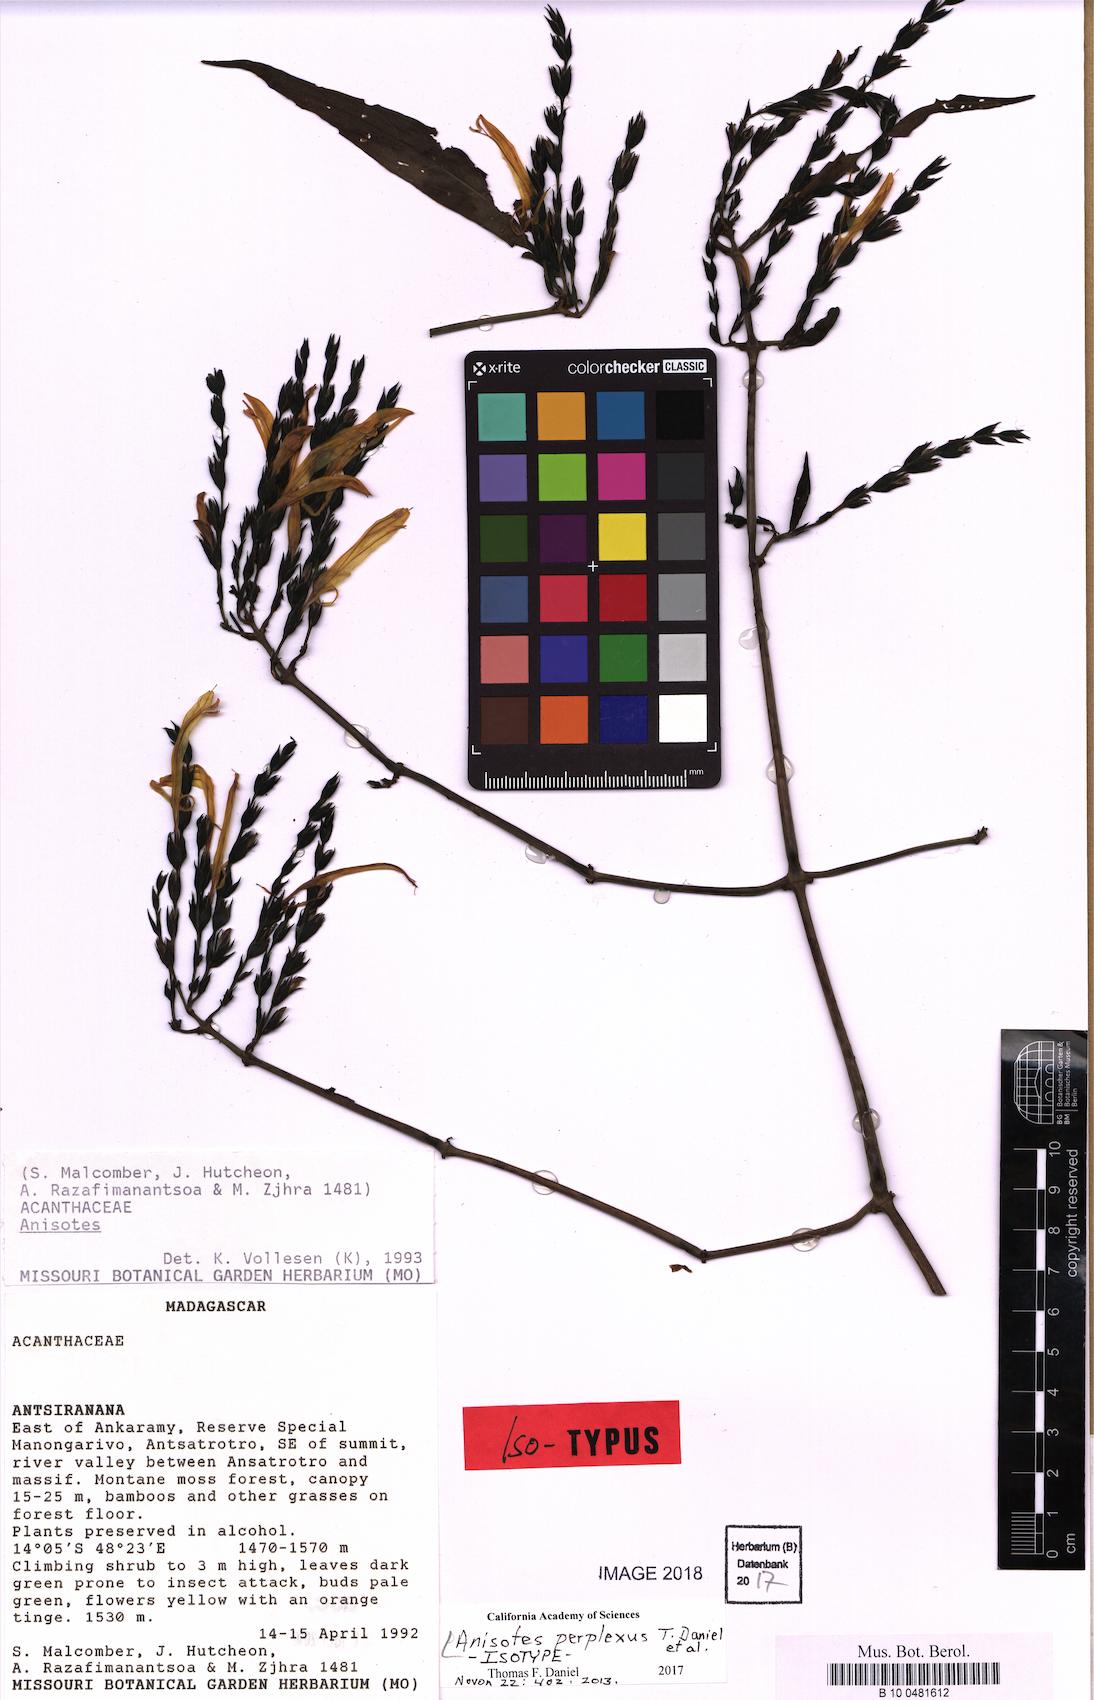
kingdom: Plantae
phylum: Tracheophyta
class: Magnoliopsida
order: Lamiales
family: Acanthaceae
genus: Anisotes
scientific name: Anisotes perplexus
